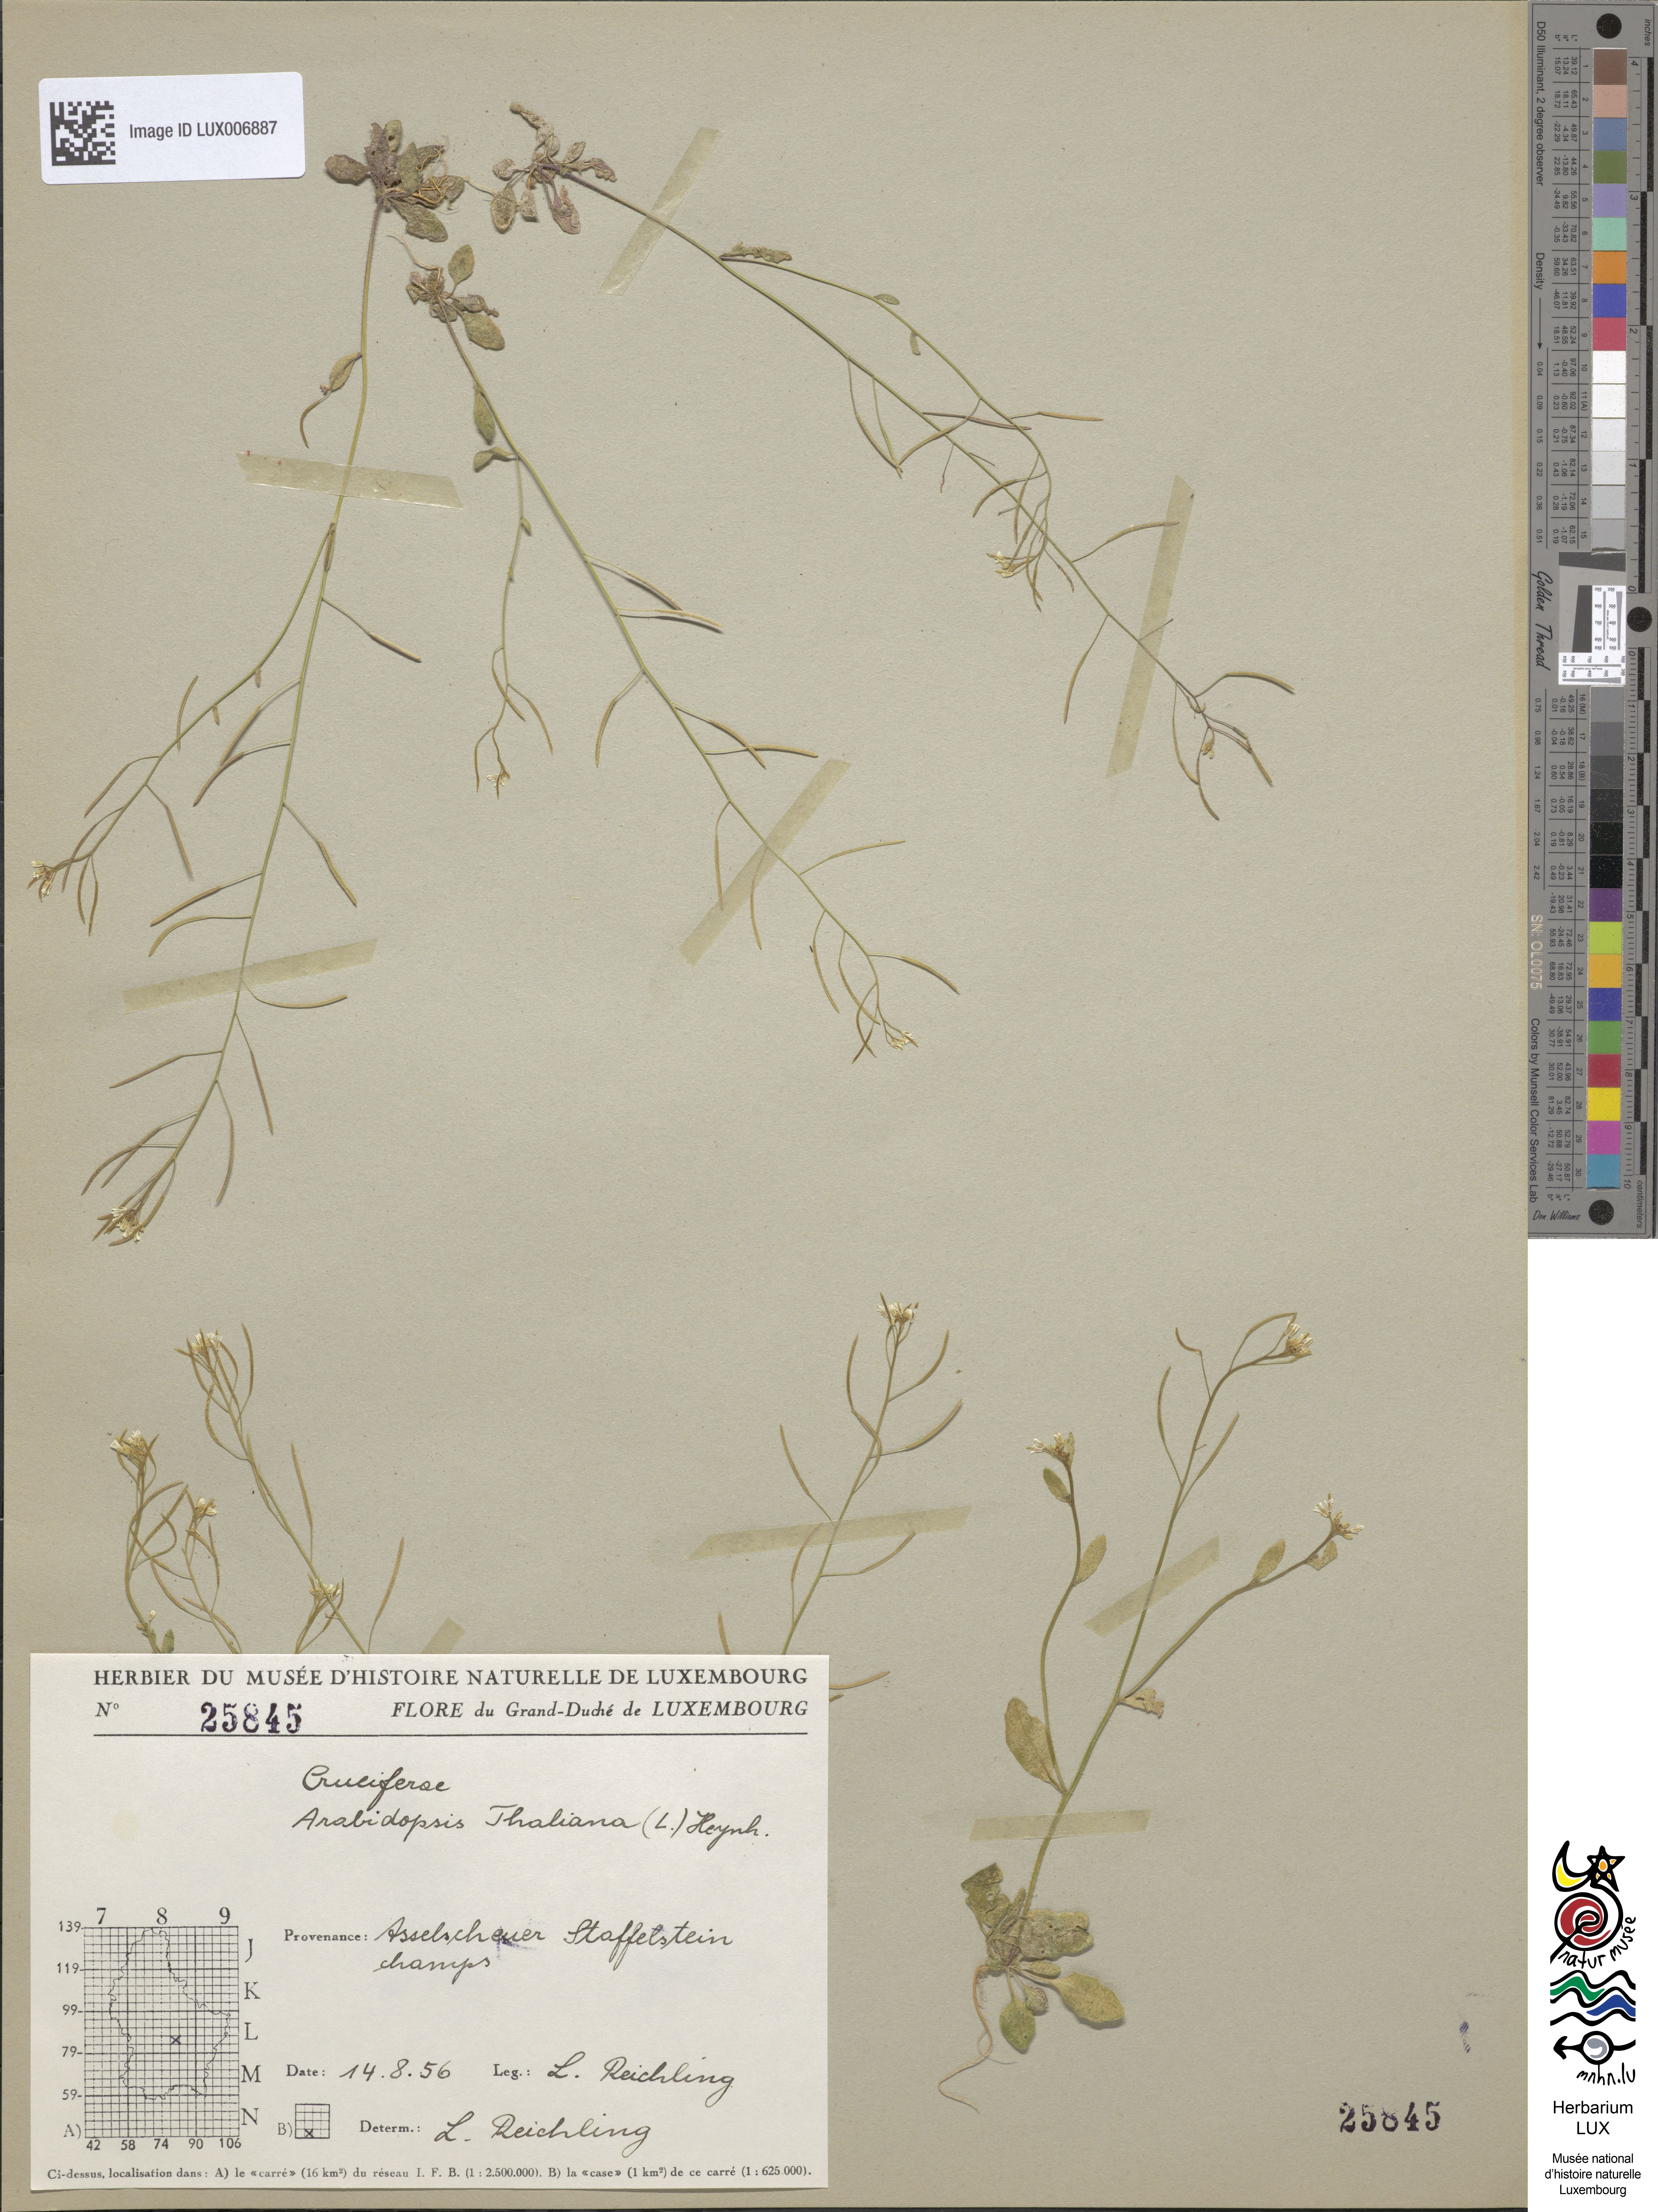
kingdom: Plantae
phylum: Tracheophyta
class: Magnoliopsida
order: Brassicales
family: Brassicaceae
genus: Arabidopsis
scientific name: Arabidopsis thaliana
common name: Thale cress
